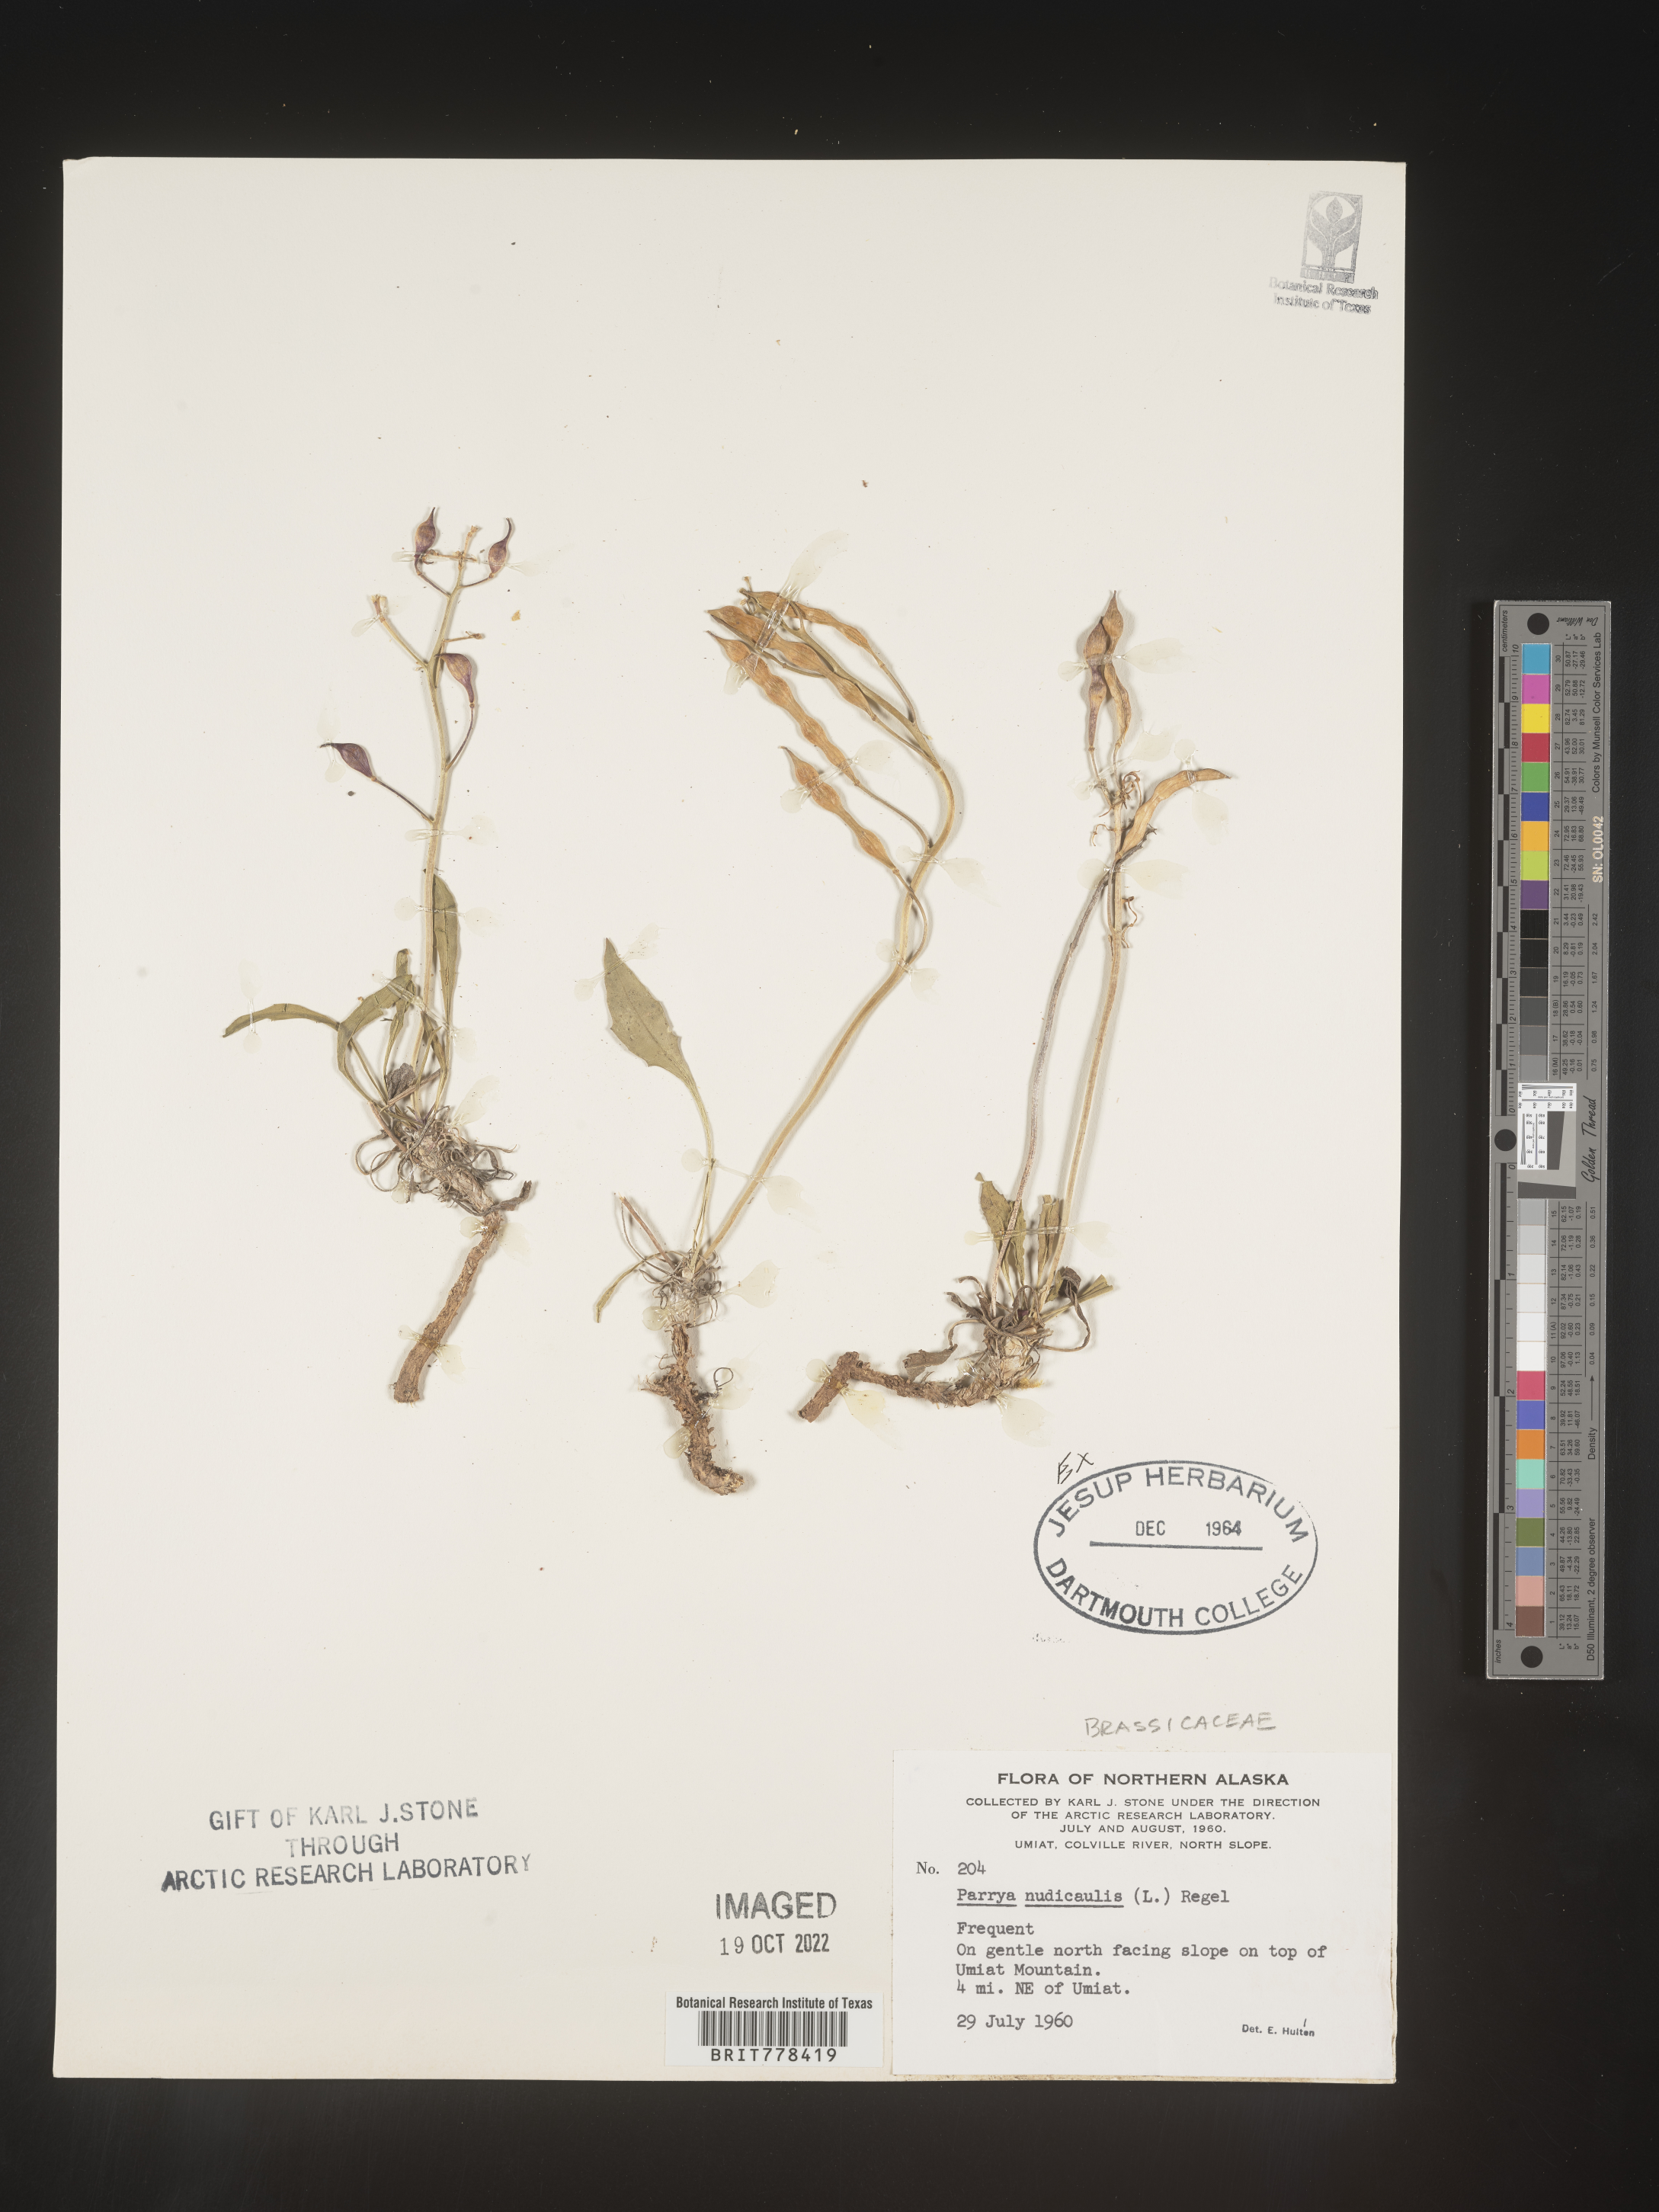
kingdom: Plantae
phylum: Tracheophyta
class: Magnoliopsida
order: Brassicales
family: Brassicaceae
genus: Parrya
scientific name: Parrya
